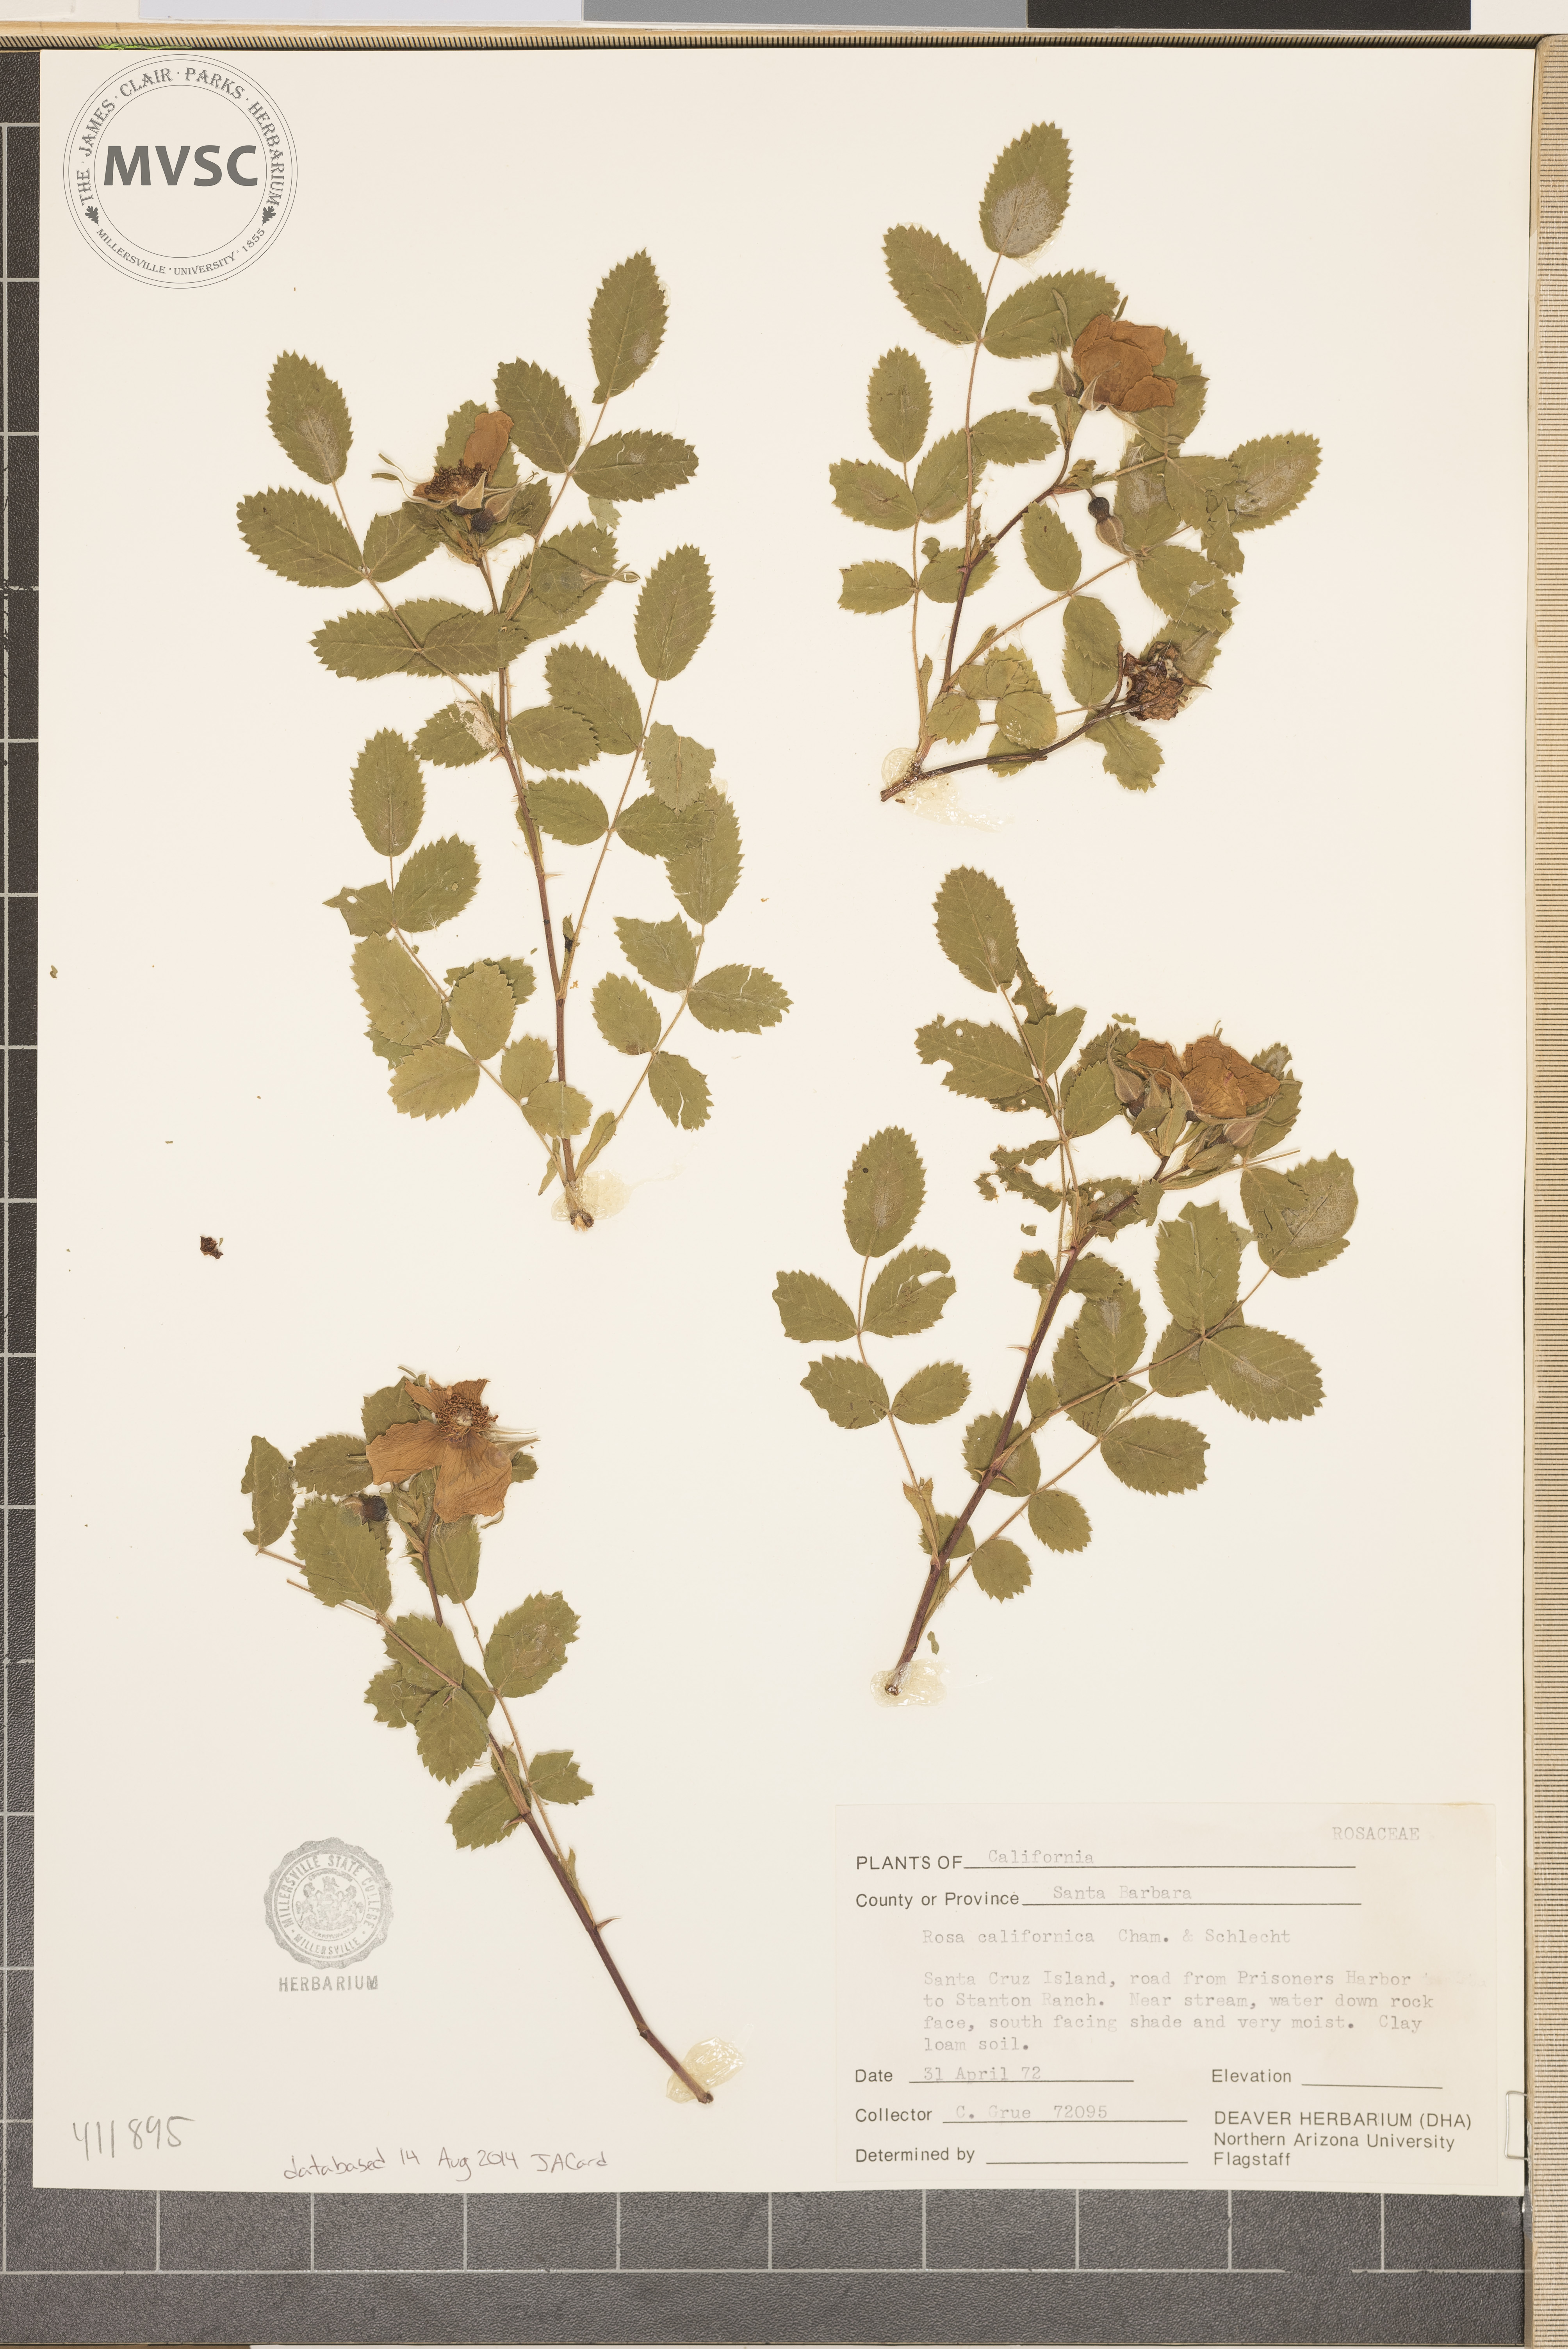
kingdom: Plantae
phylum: Tracheophyta
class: Magnoliopsida
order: Rosales
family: Rosaceae
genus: Rosa
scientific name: Rosa californica
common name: California rose
